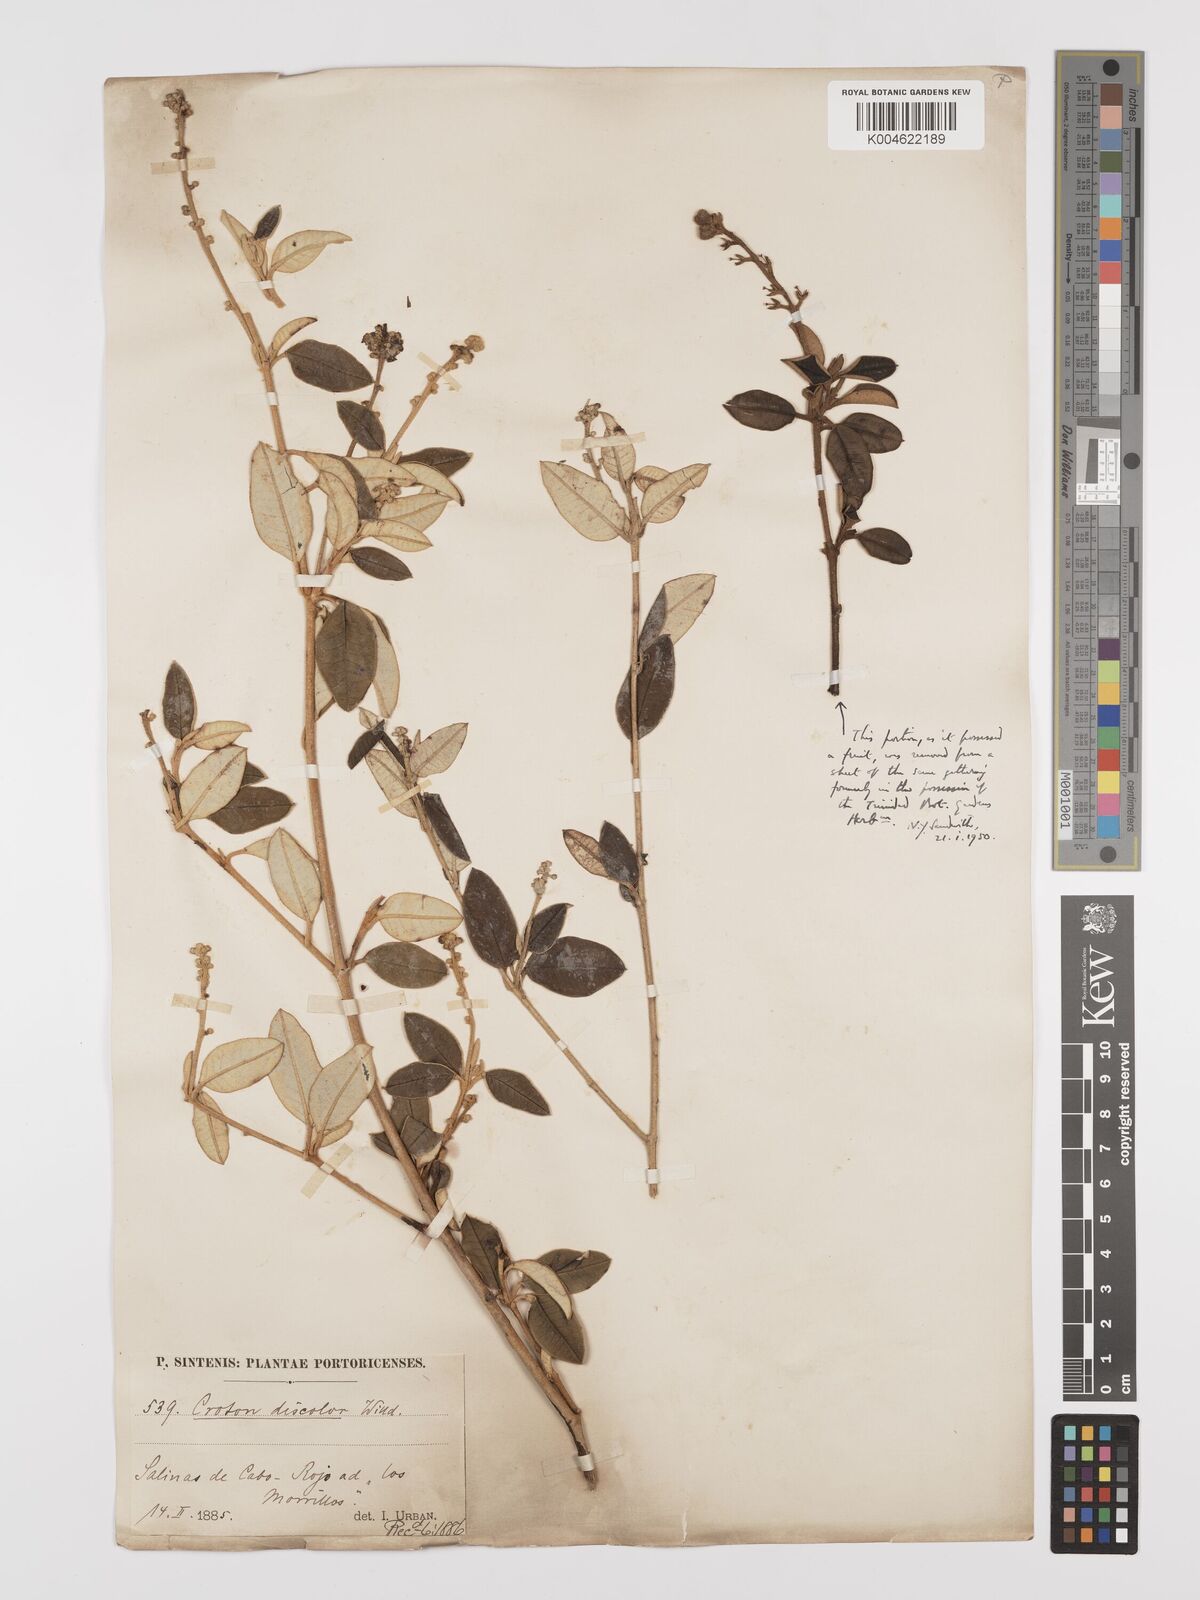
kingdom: Plantae
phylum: Tracheophyta
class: Magnoliopsida
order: Malpighiales
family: Euphorbiaceae
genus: Croton
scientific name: Croton
